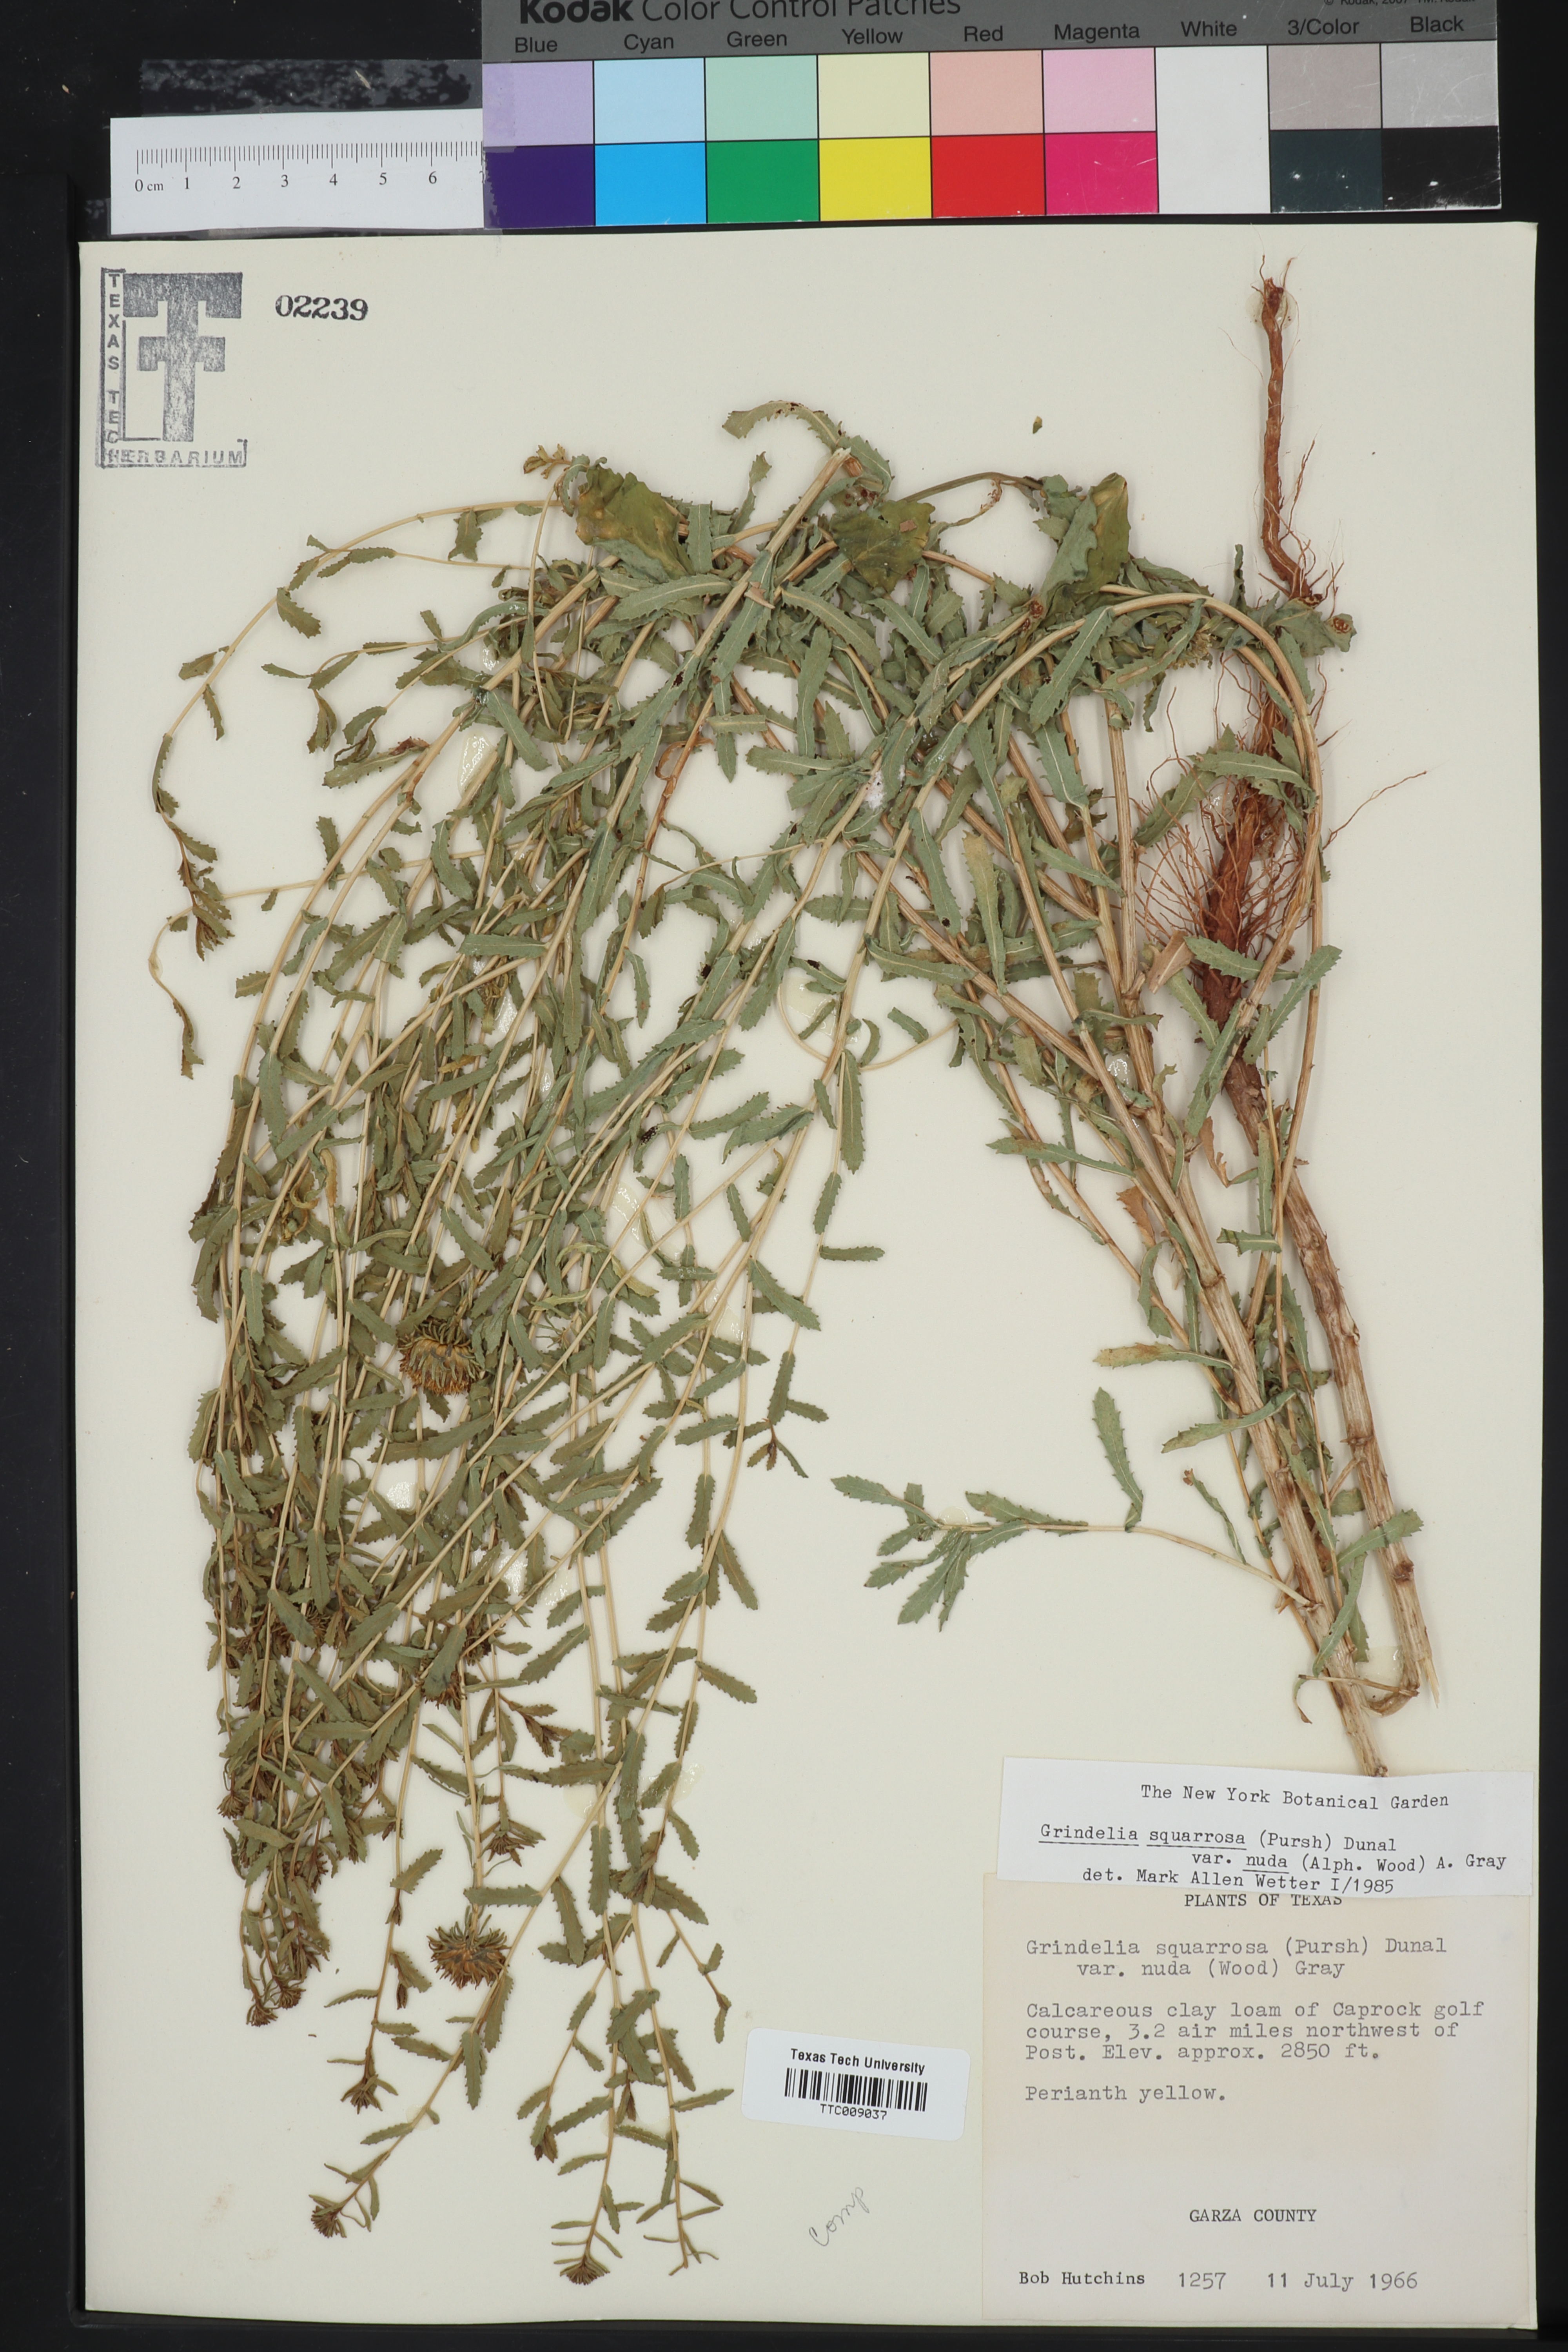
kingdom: Plantae
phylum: Tracheophyta
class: Magnoliopsida
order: Asterales
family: Asteraceae
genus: Grindelia
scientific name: Grindelia nuda
